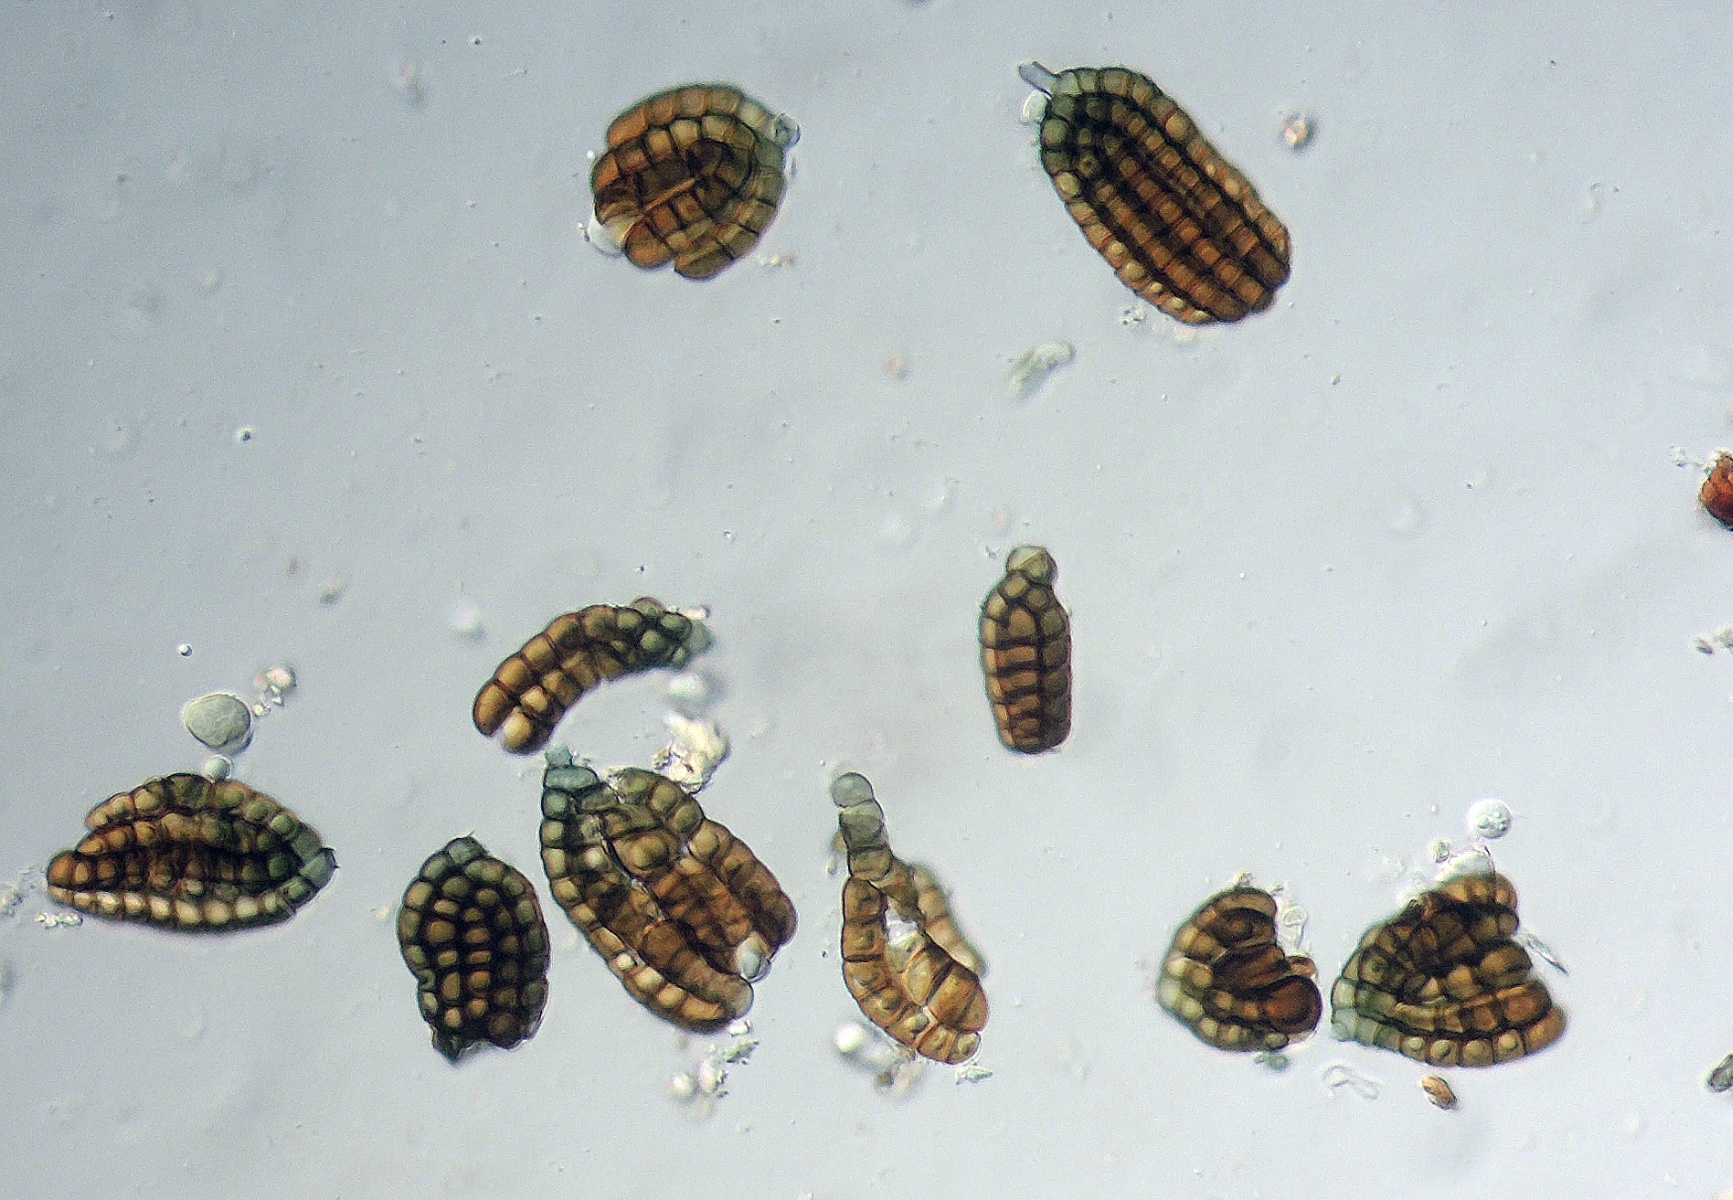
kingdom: Fungi
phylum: Ascomycota
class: Dothideomycetes
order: Pleosporales
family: Dictyosporiaceae
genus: Dictyosporium
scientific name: Dictyosporium elegans
